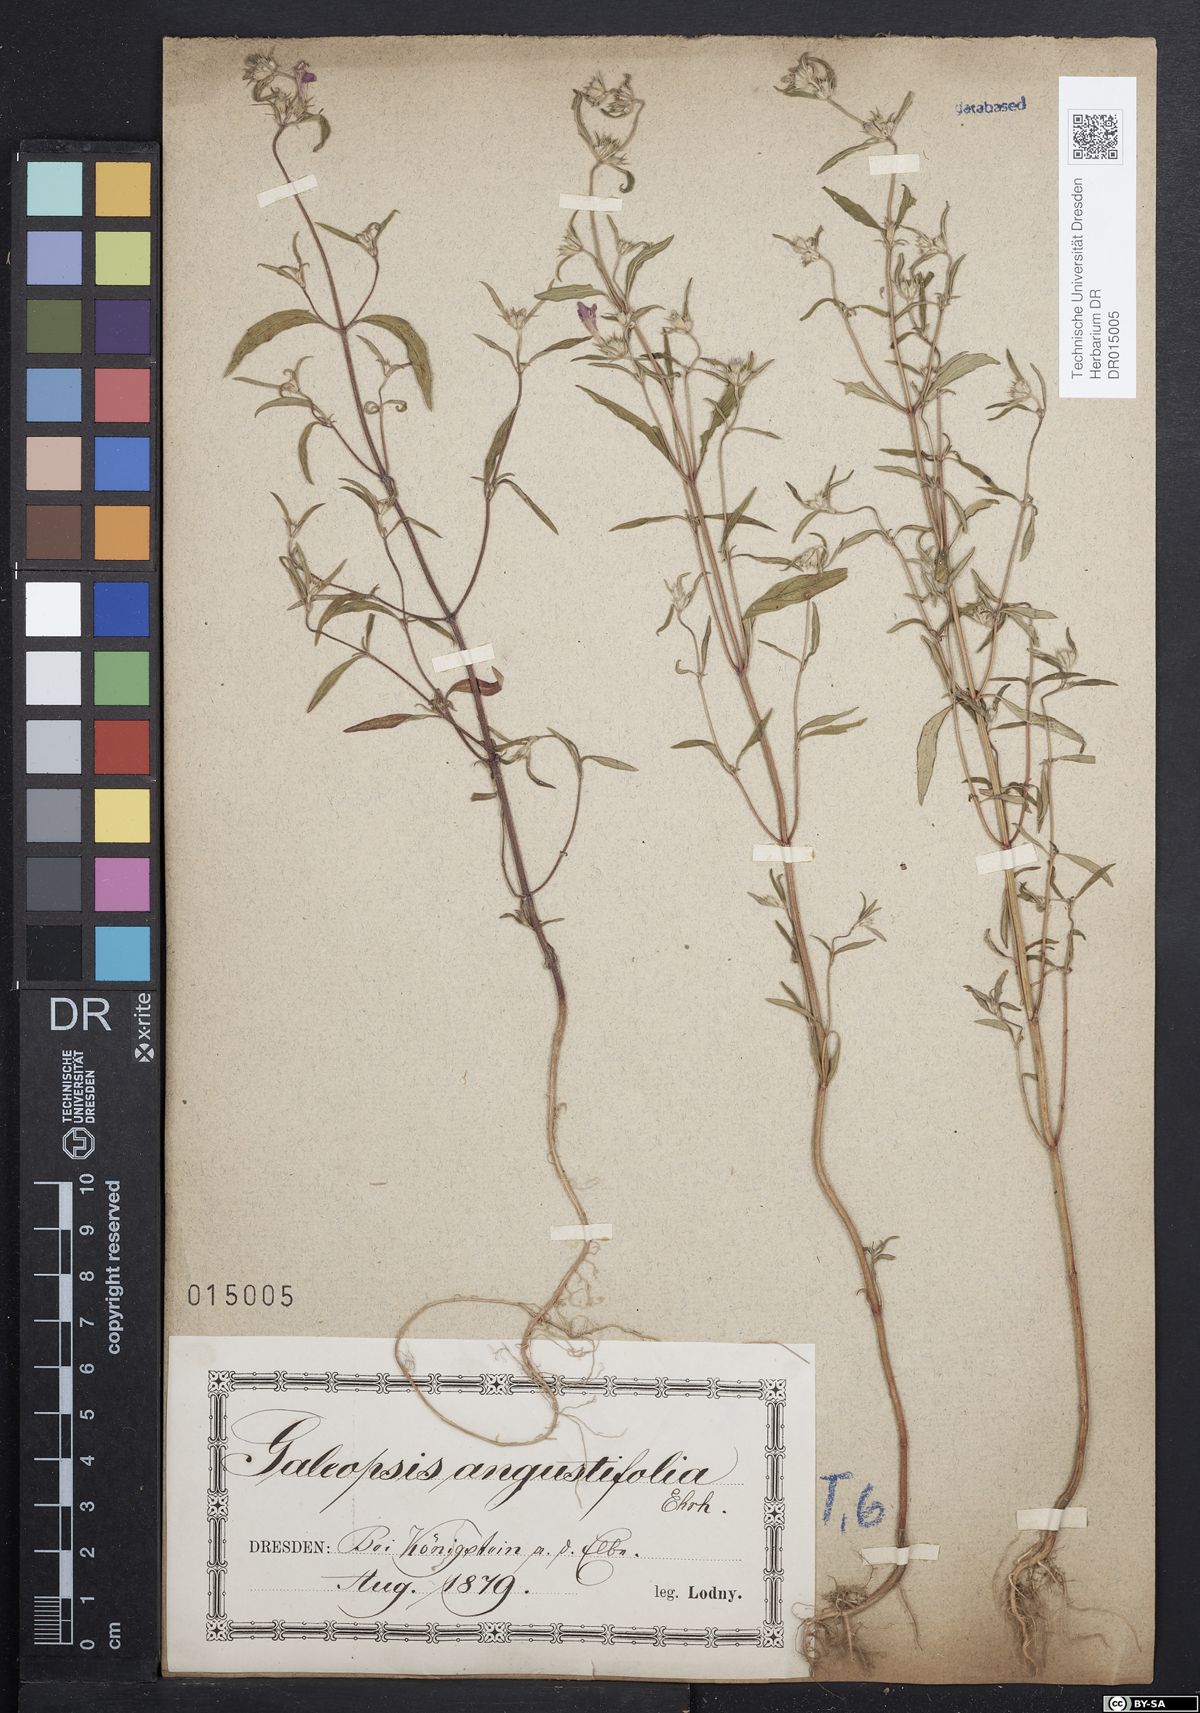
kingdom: Plantae
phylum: Tracheophyta
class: Magnoliopsida
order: Lamiales
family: Lamiaceae
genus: Galeopsis
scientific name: Galeopsis angustifolia
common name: Red hemp-nettle
